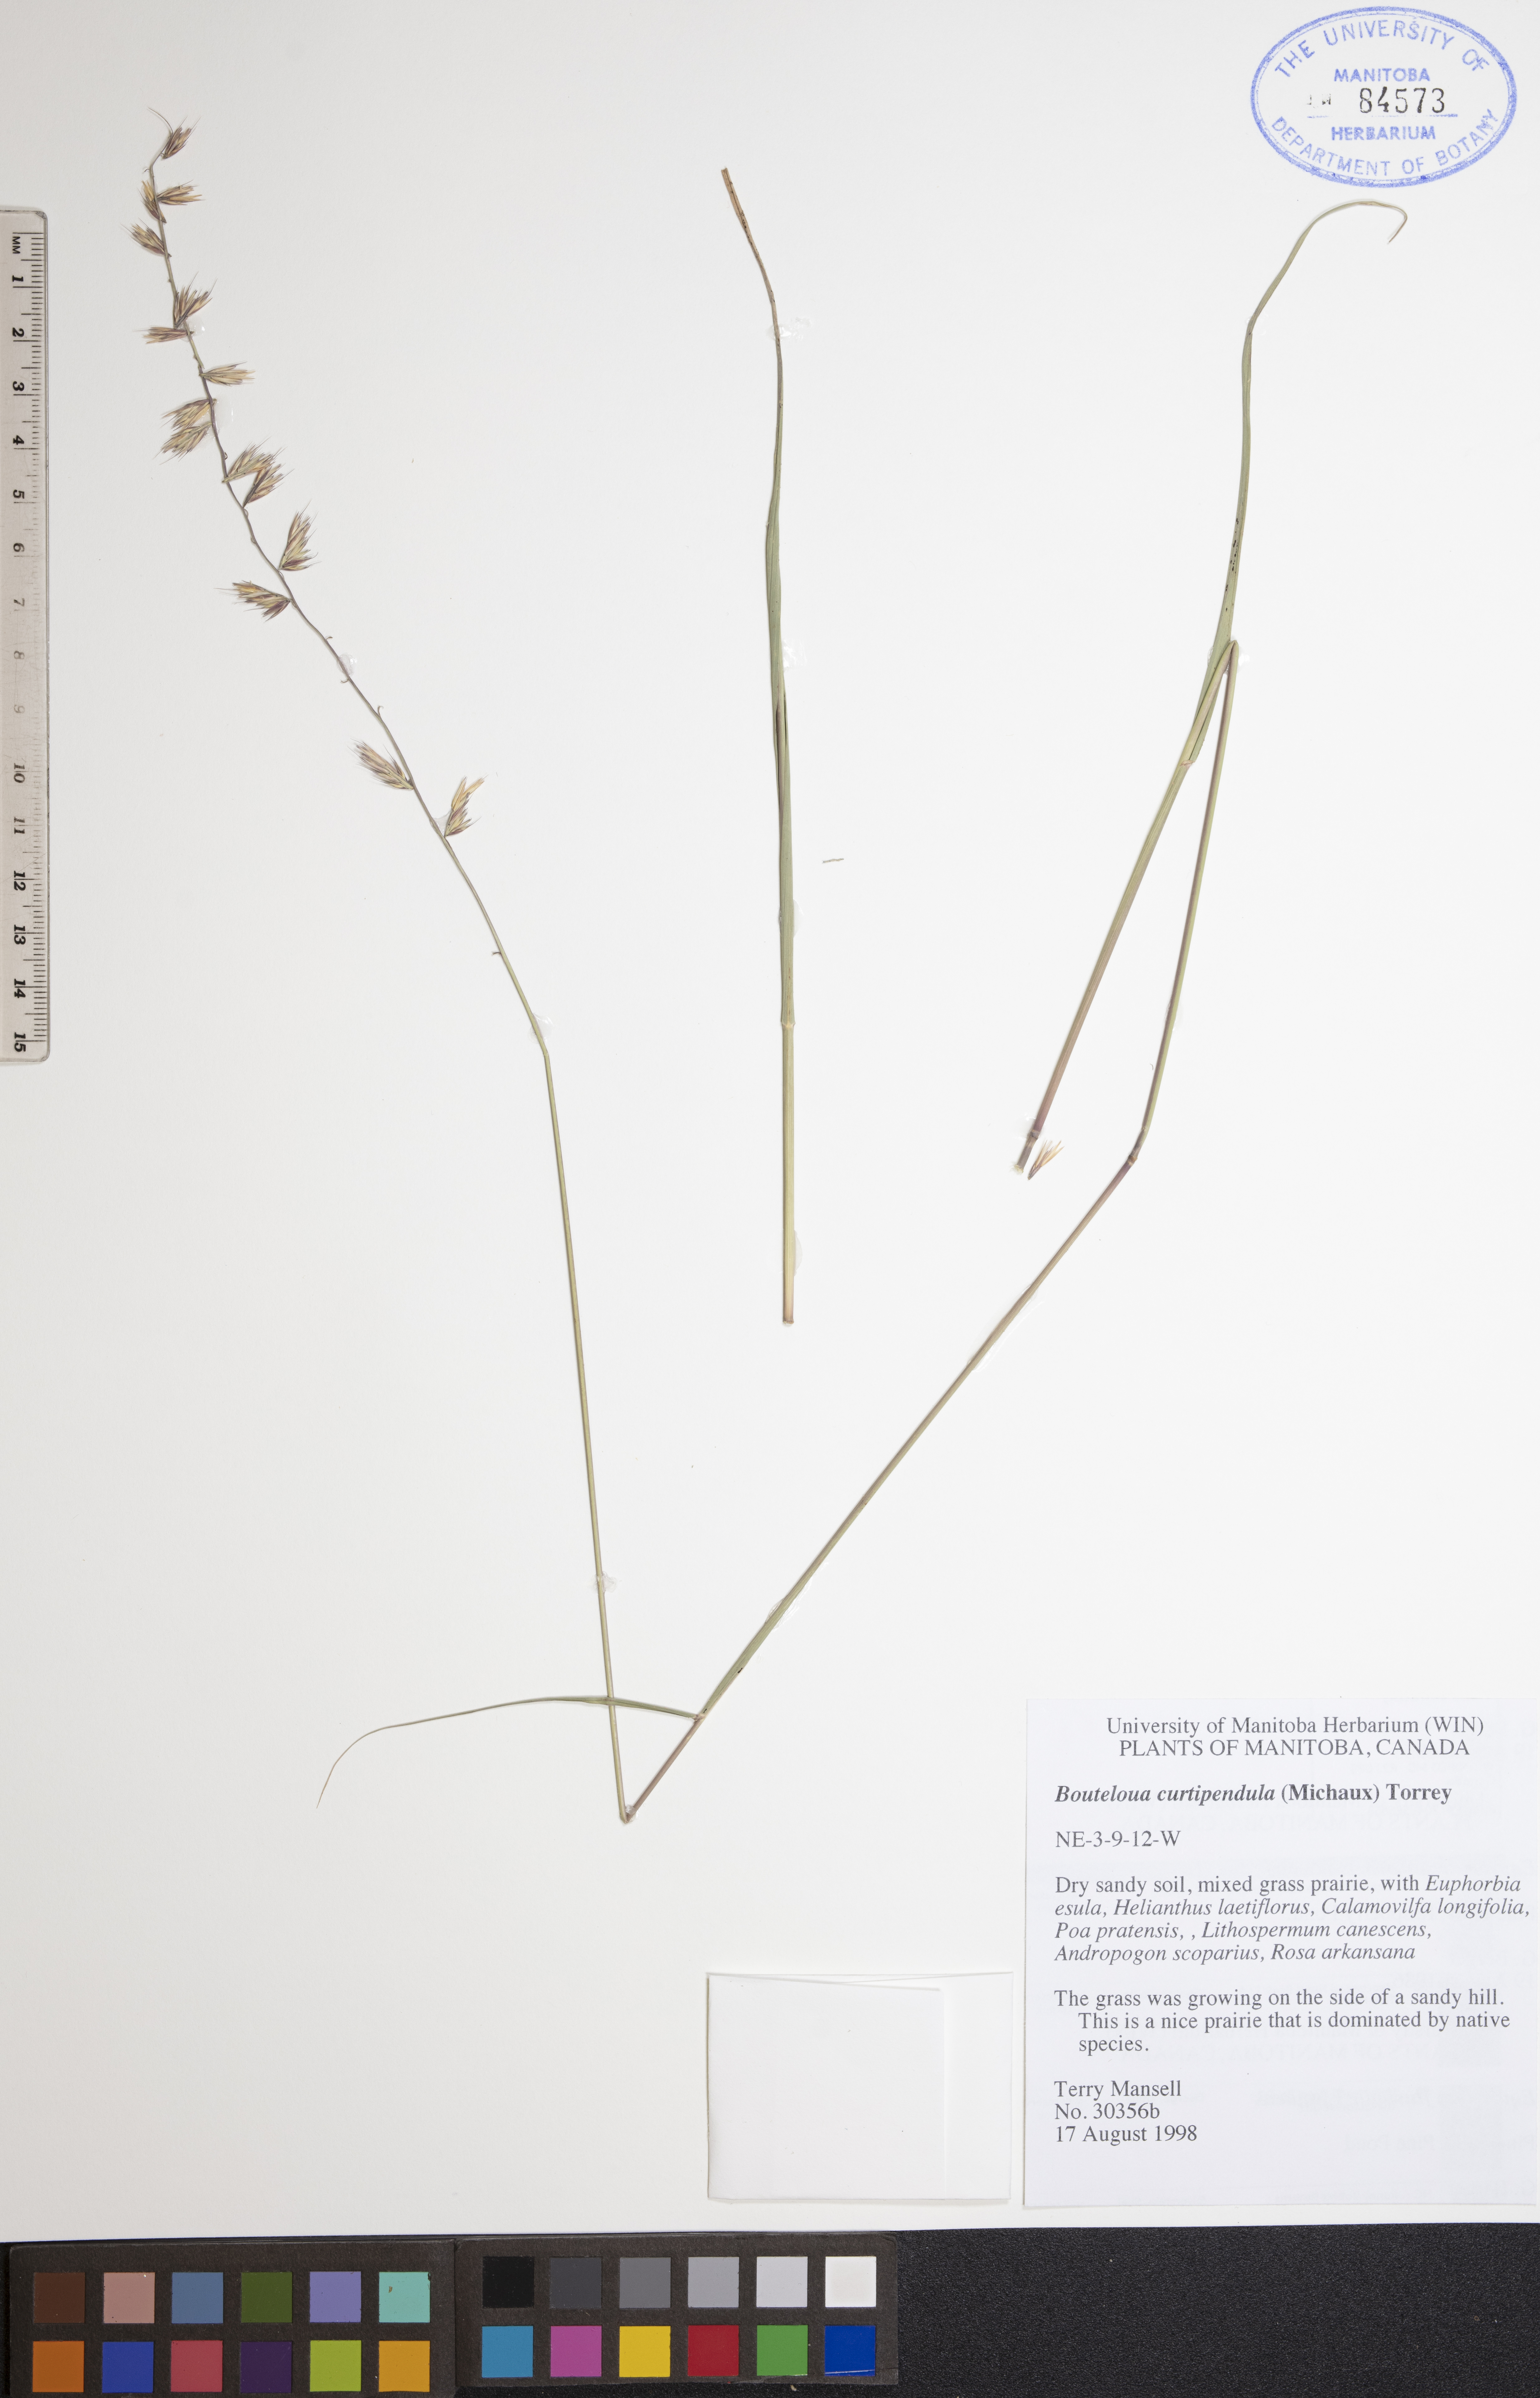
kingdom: Plantae
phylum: Tracheophyta
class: Liliopsida
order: Poales
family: Poaceae
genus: Bouteloua
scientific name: Bouteloua curtipendula
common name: Side-oats grama
